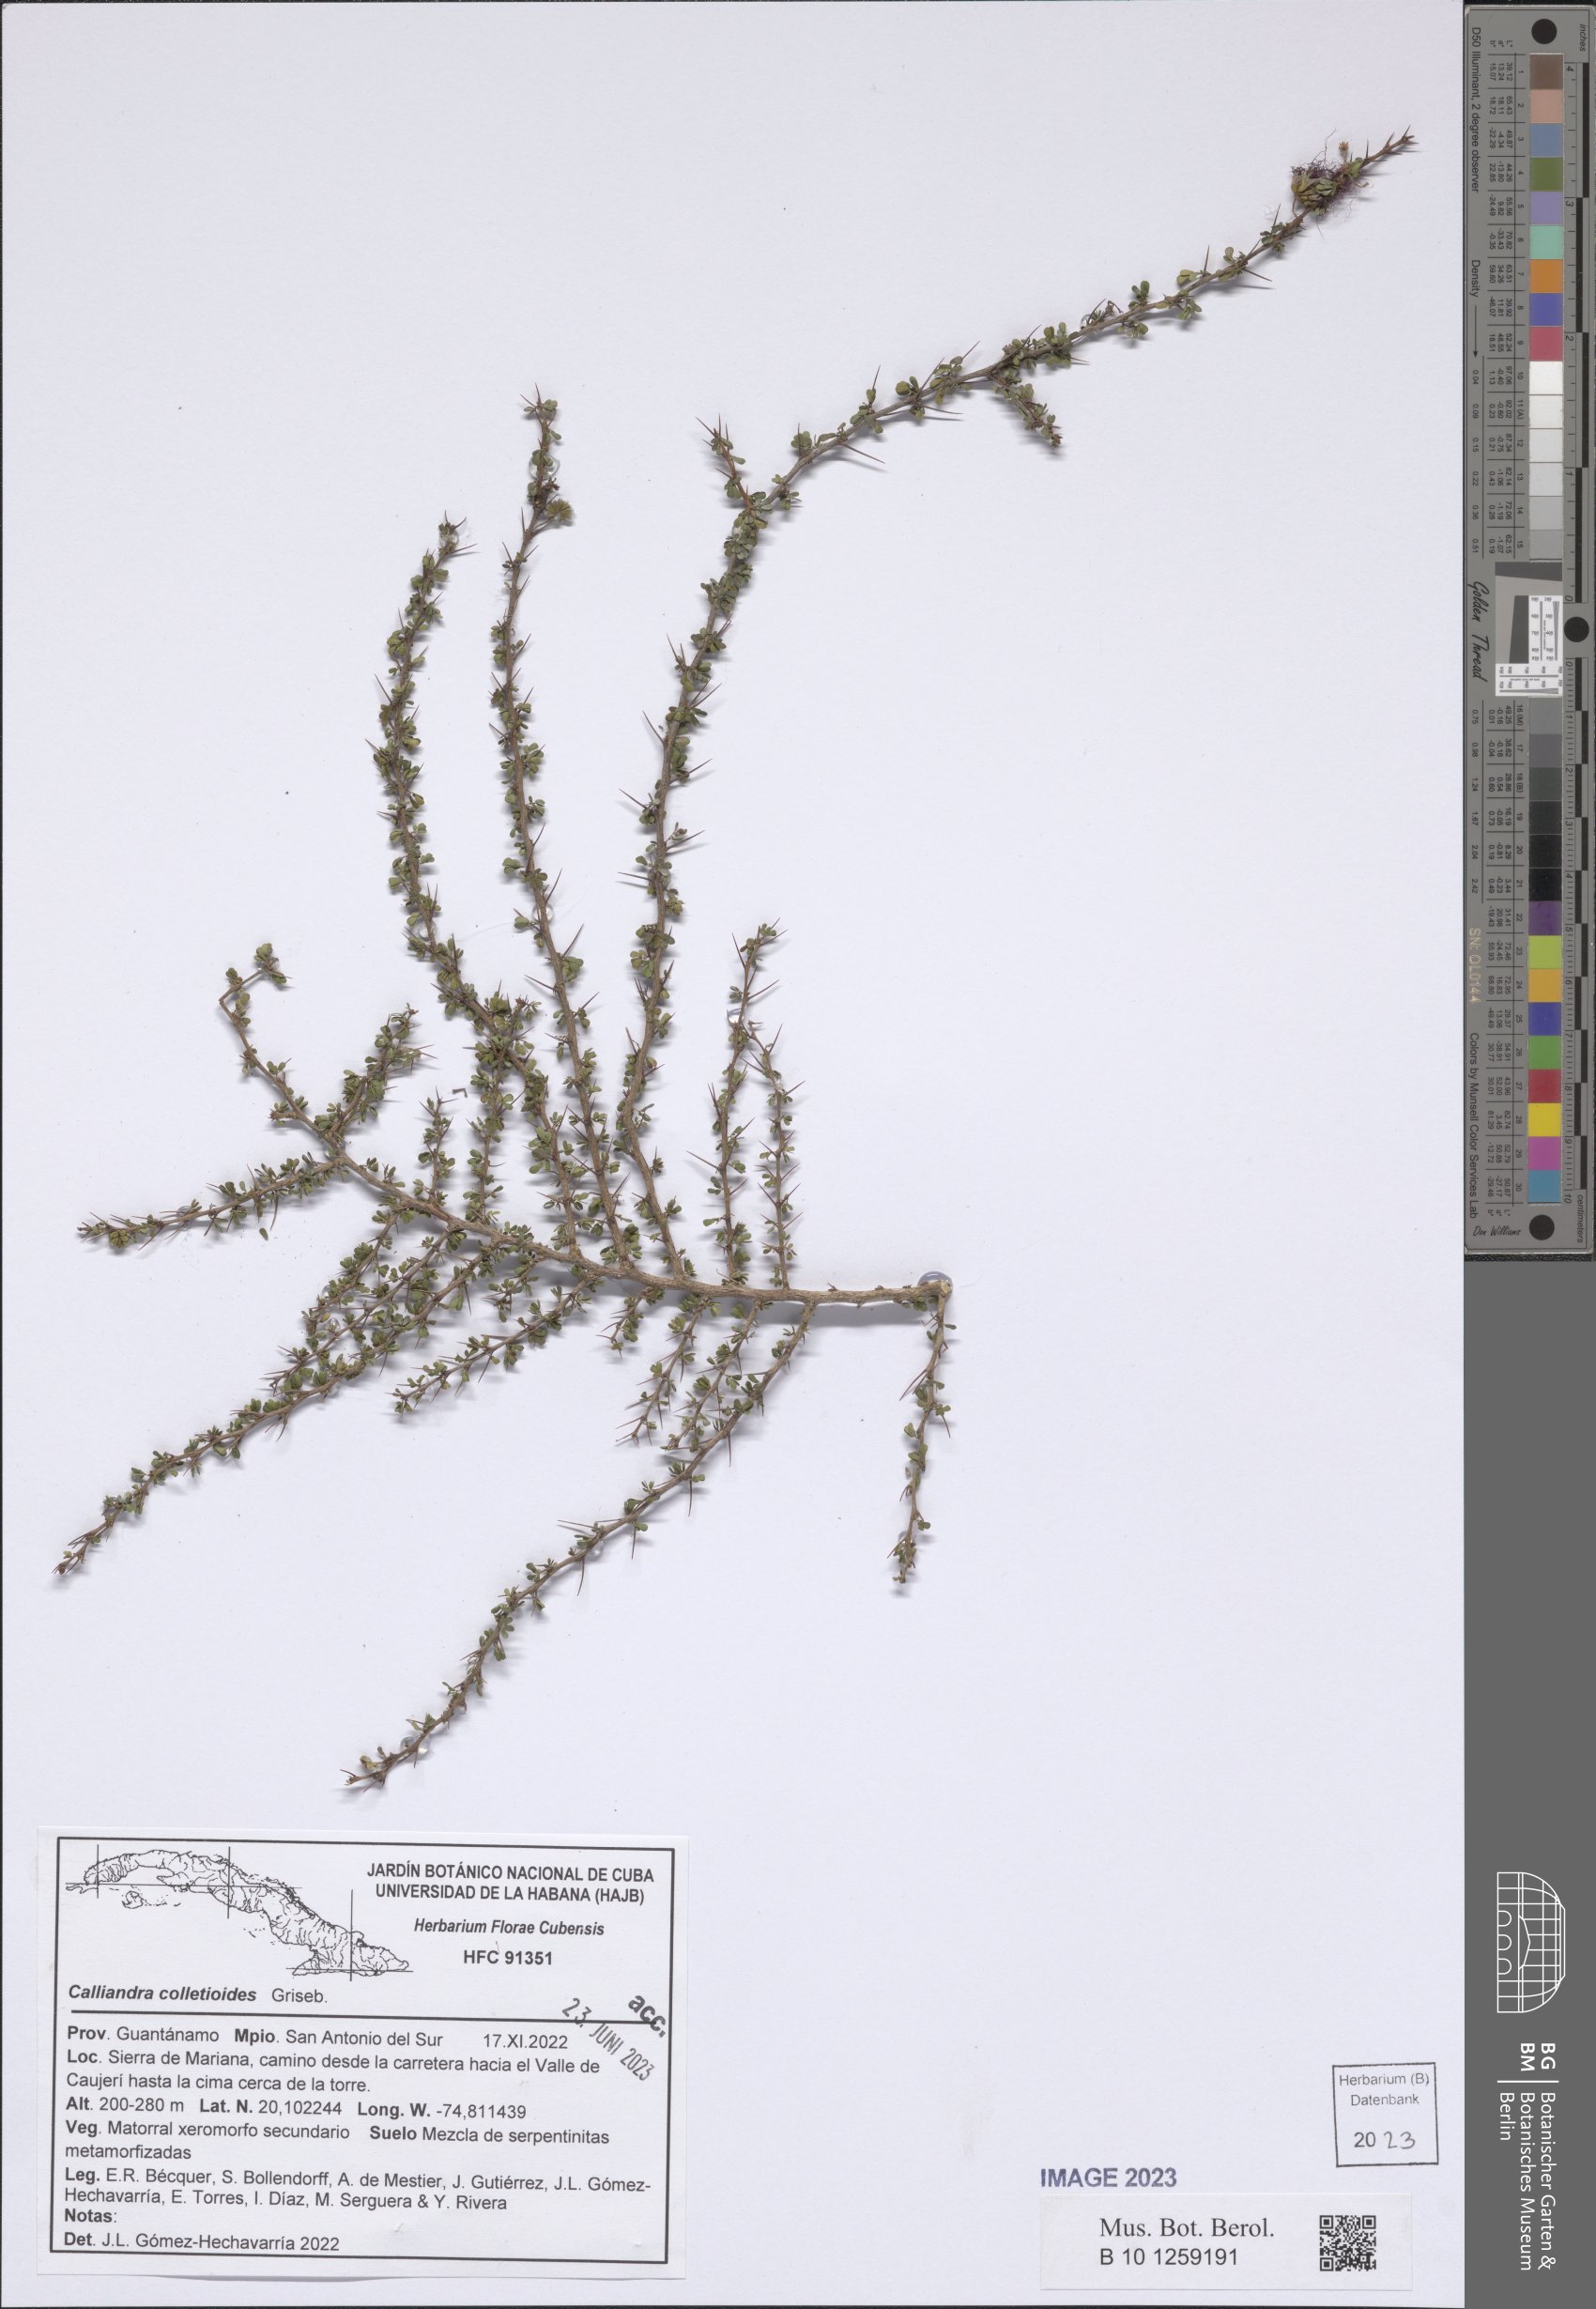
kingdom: Plantae
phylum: Tracheophyta
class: Magnoliopsida
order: Fabales
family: Fabaceae
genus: Calliandra
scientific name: Calliandra haematomma
